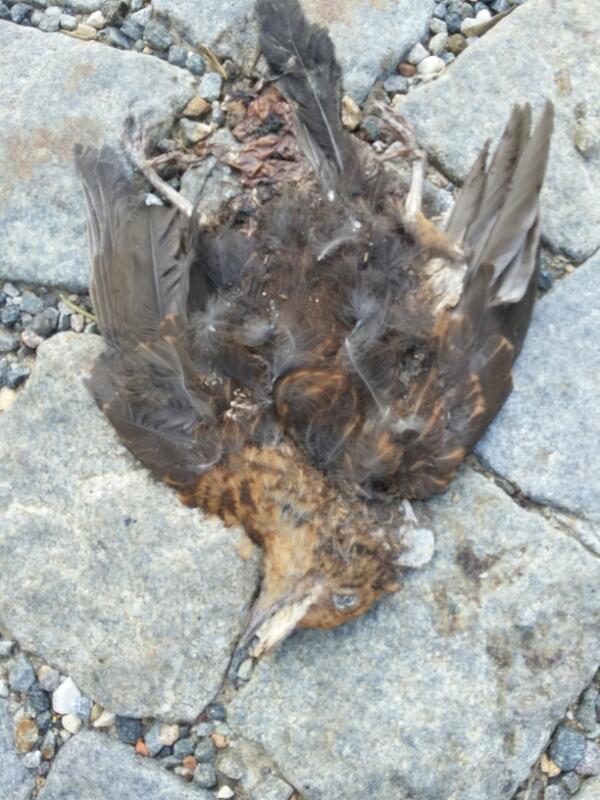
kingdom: Animalia
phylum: Chordata
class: Aves
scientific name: Aves
